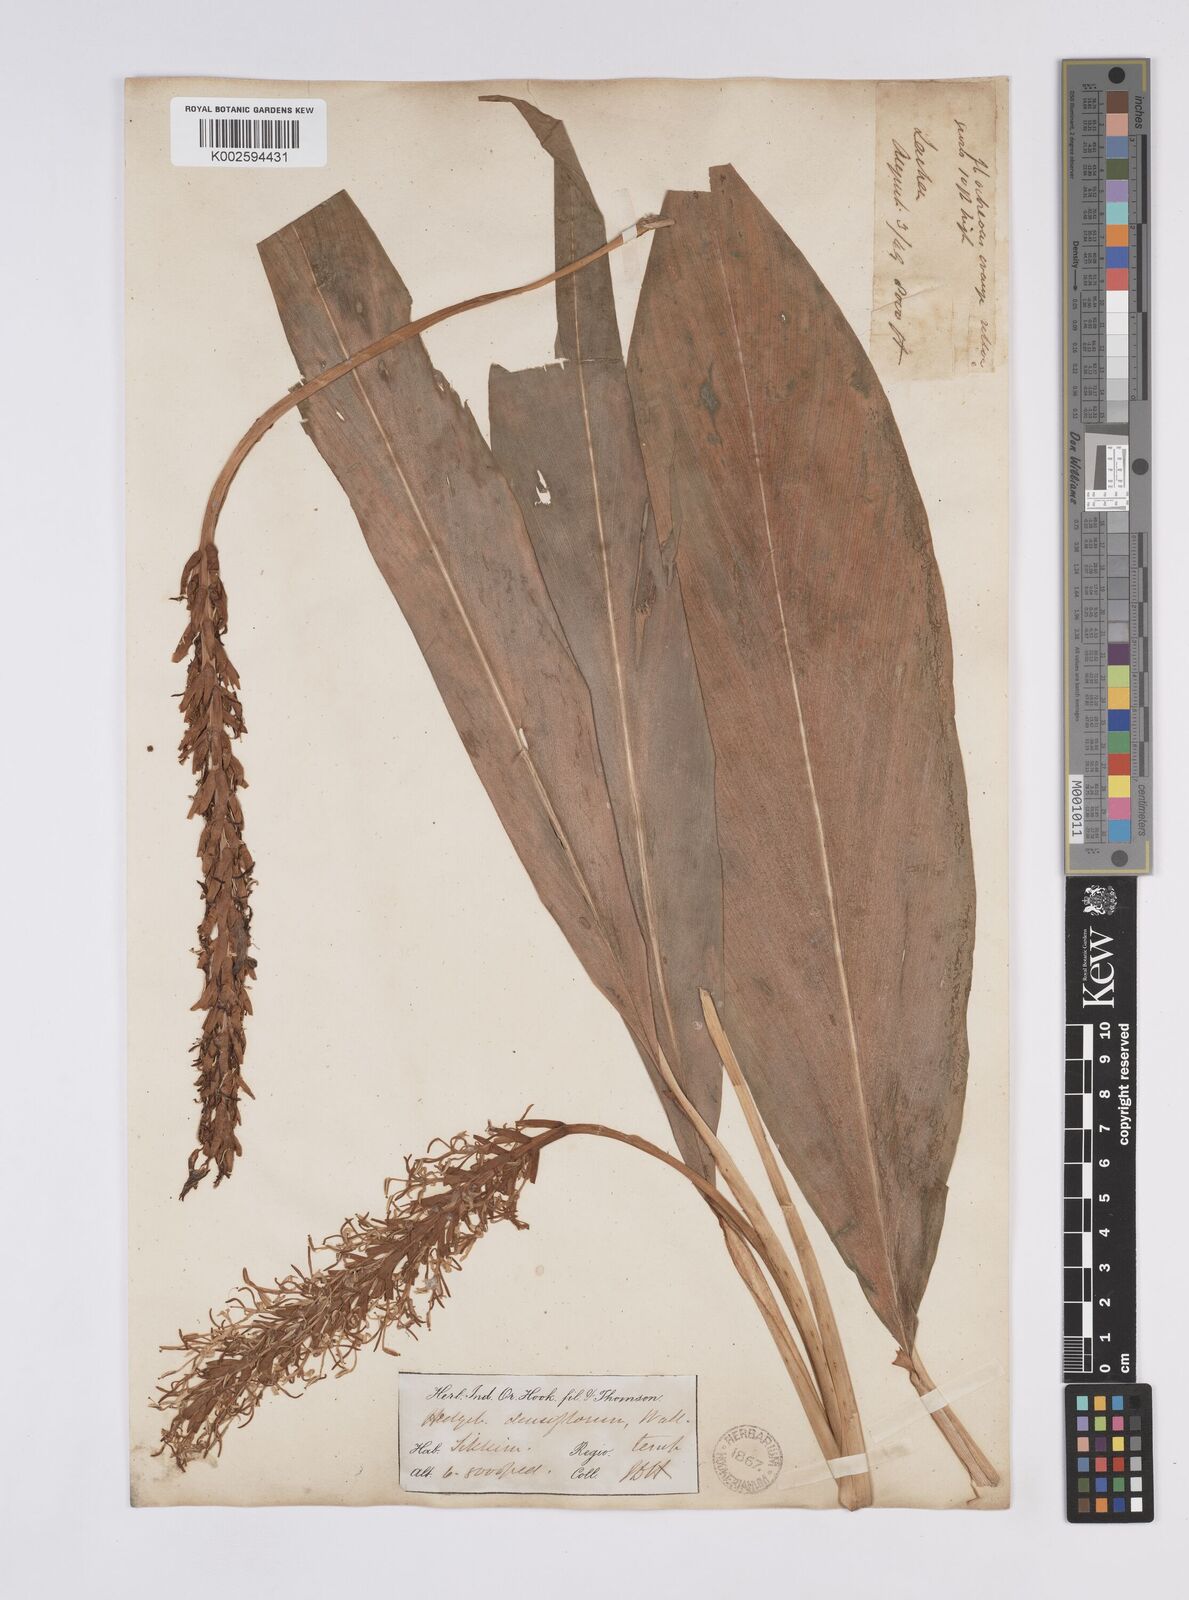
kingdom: Plantae
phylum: Tracheophyta
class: Liliopsida
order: Zingiberales
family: Zingiberaceae
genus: Hedychium
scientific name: Hedychium densiflorum
